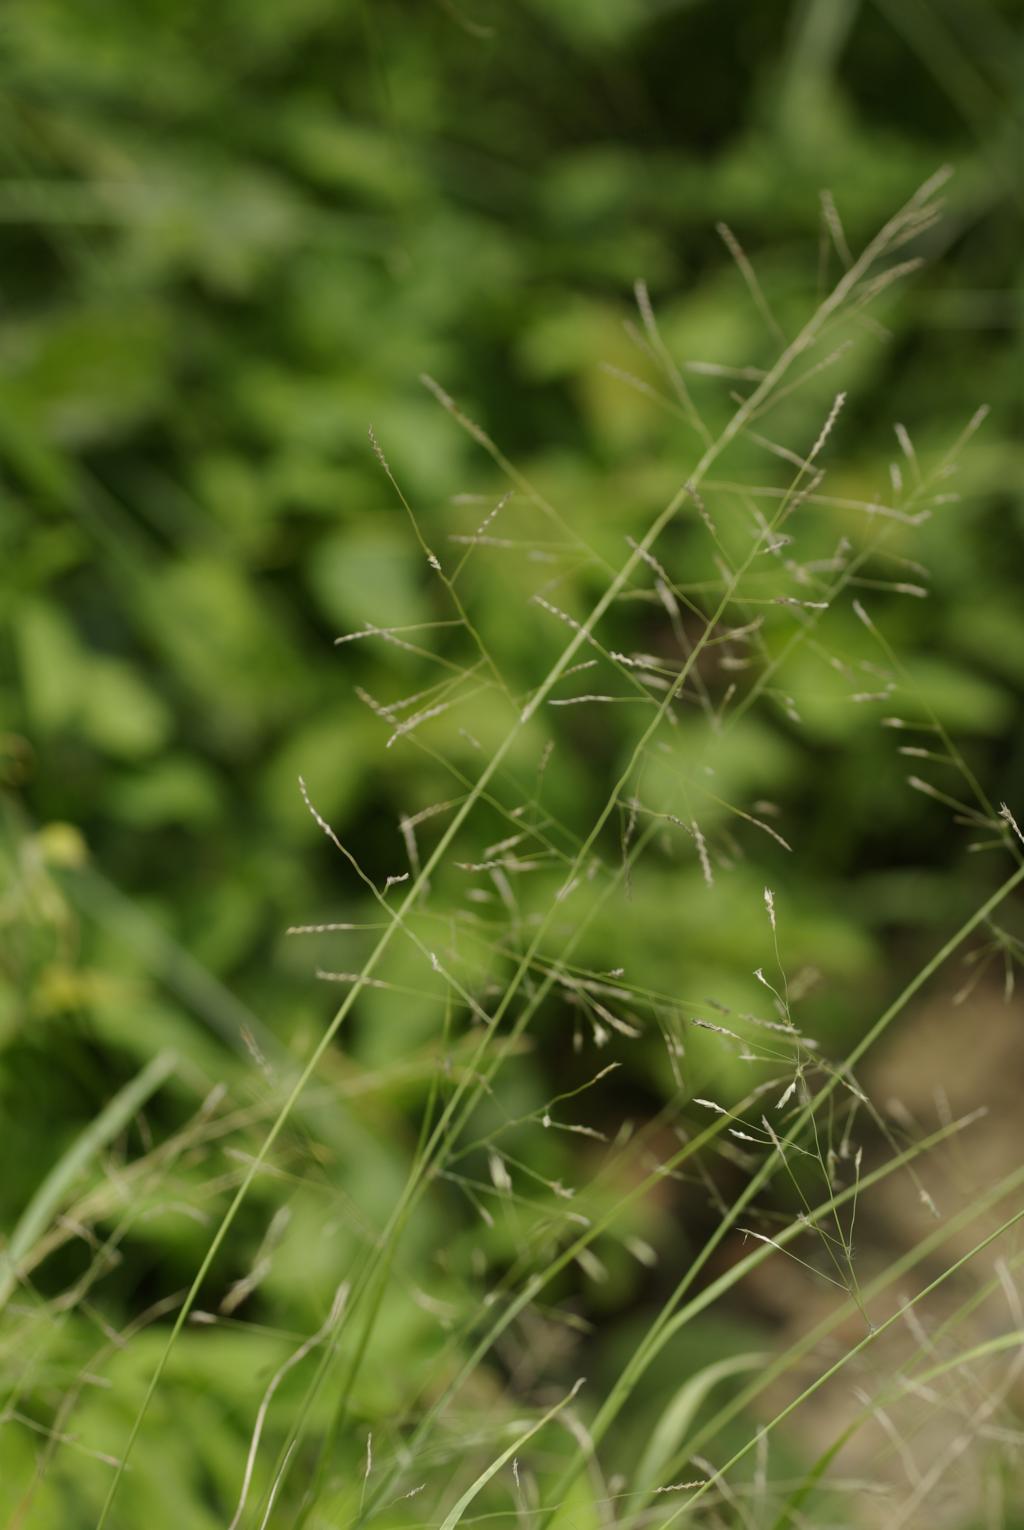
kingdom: Plantae
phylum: Tracheophyta
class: Liliopsida
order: Poales
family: Poaceae
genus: Eragrostis
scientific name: Eragrostis tenuifolia
